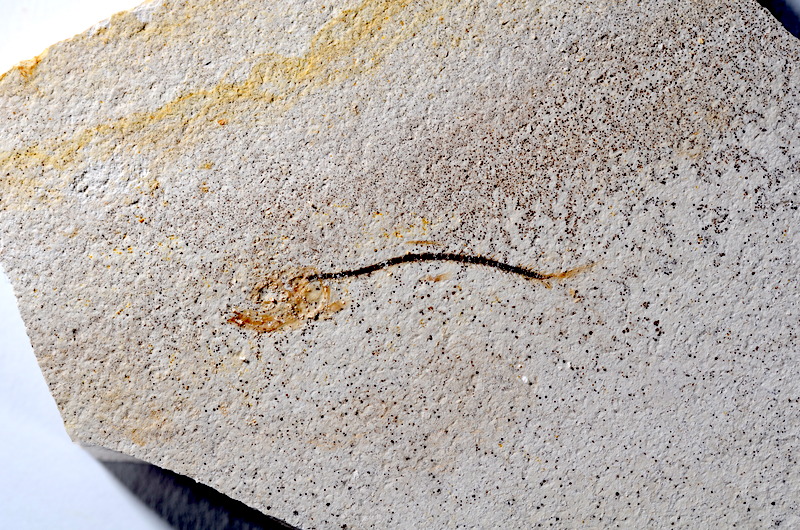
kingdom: Animalia
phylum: Chordata
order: Salmoniformes
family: Orthogonikleithridae
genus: Orthogonikleithrus
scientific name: Orthogonikleithrus hoelli
